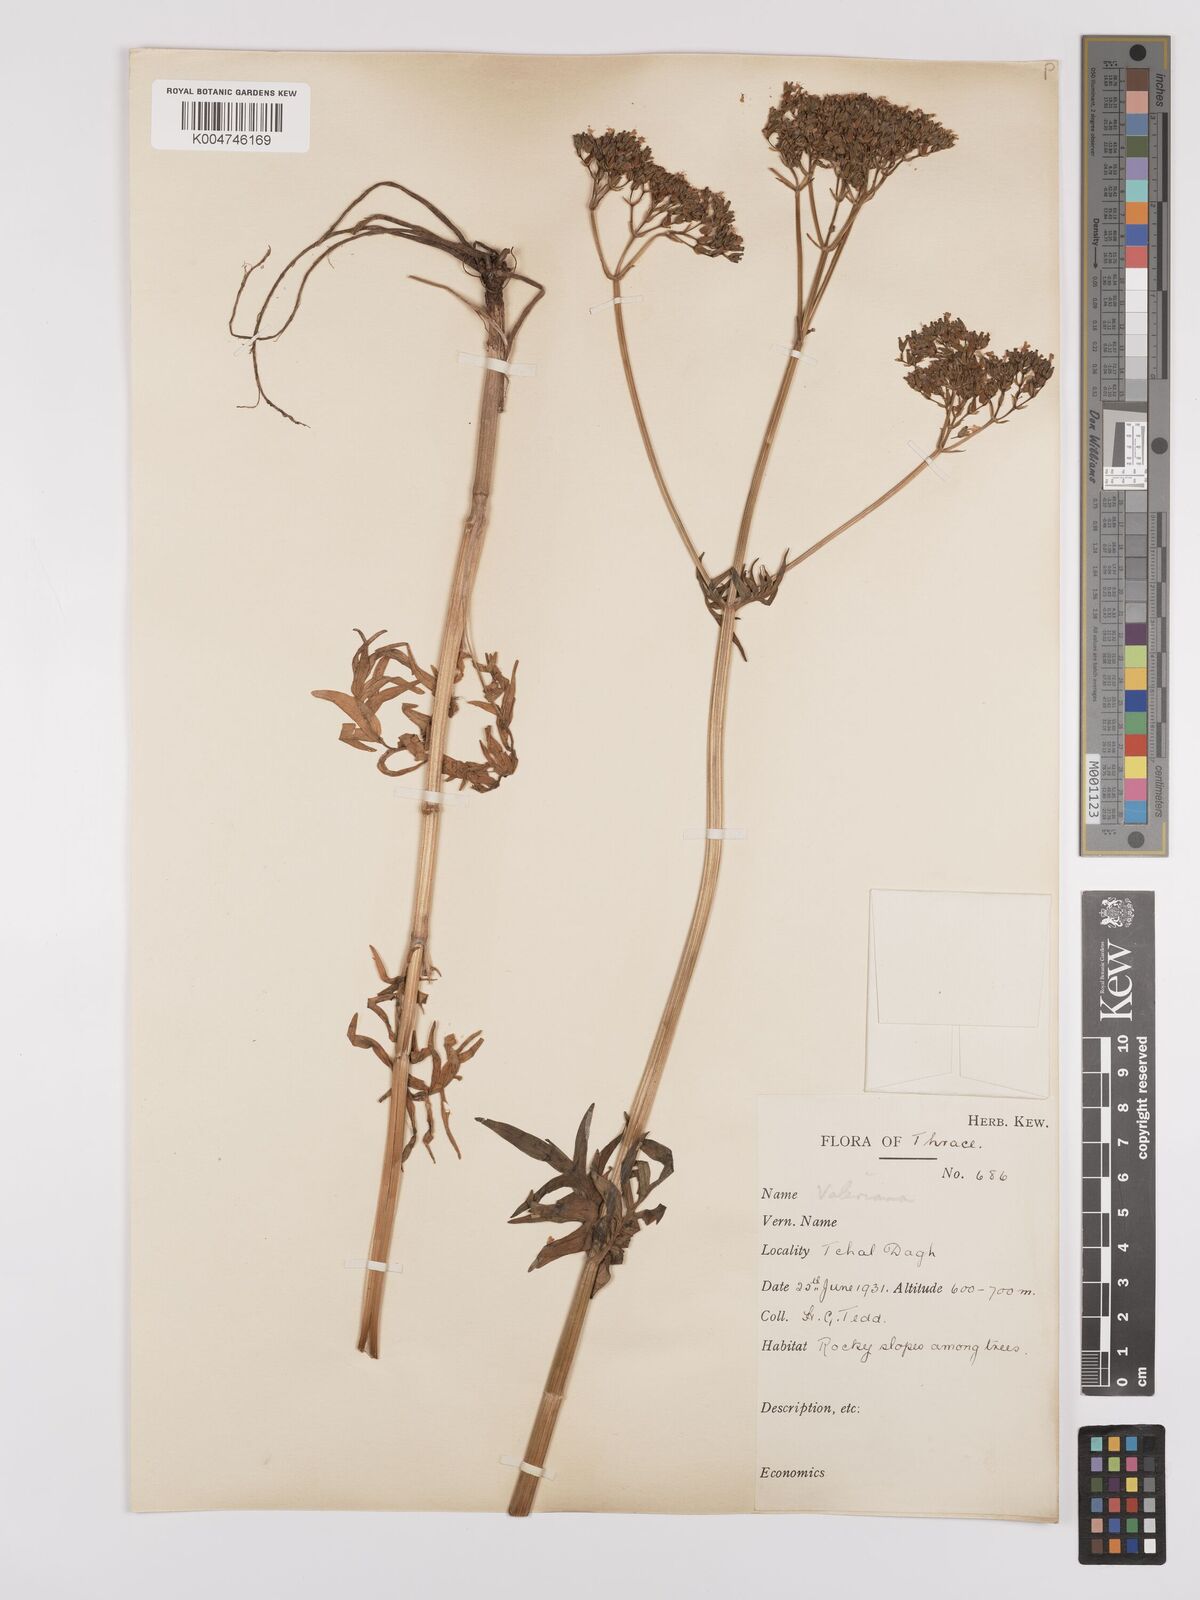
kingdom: Plantae
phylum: Tracheophyta
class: Magnoliopsida
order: Dipsacales
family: Caprifoliaceae
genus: Valeriana
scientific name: Valeriana dioscoridis
